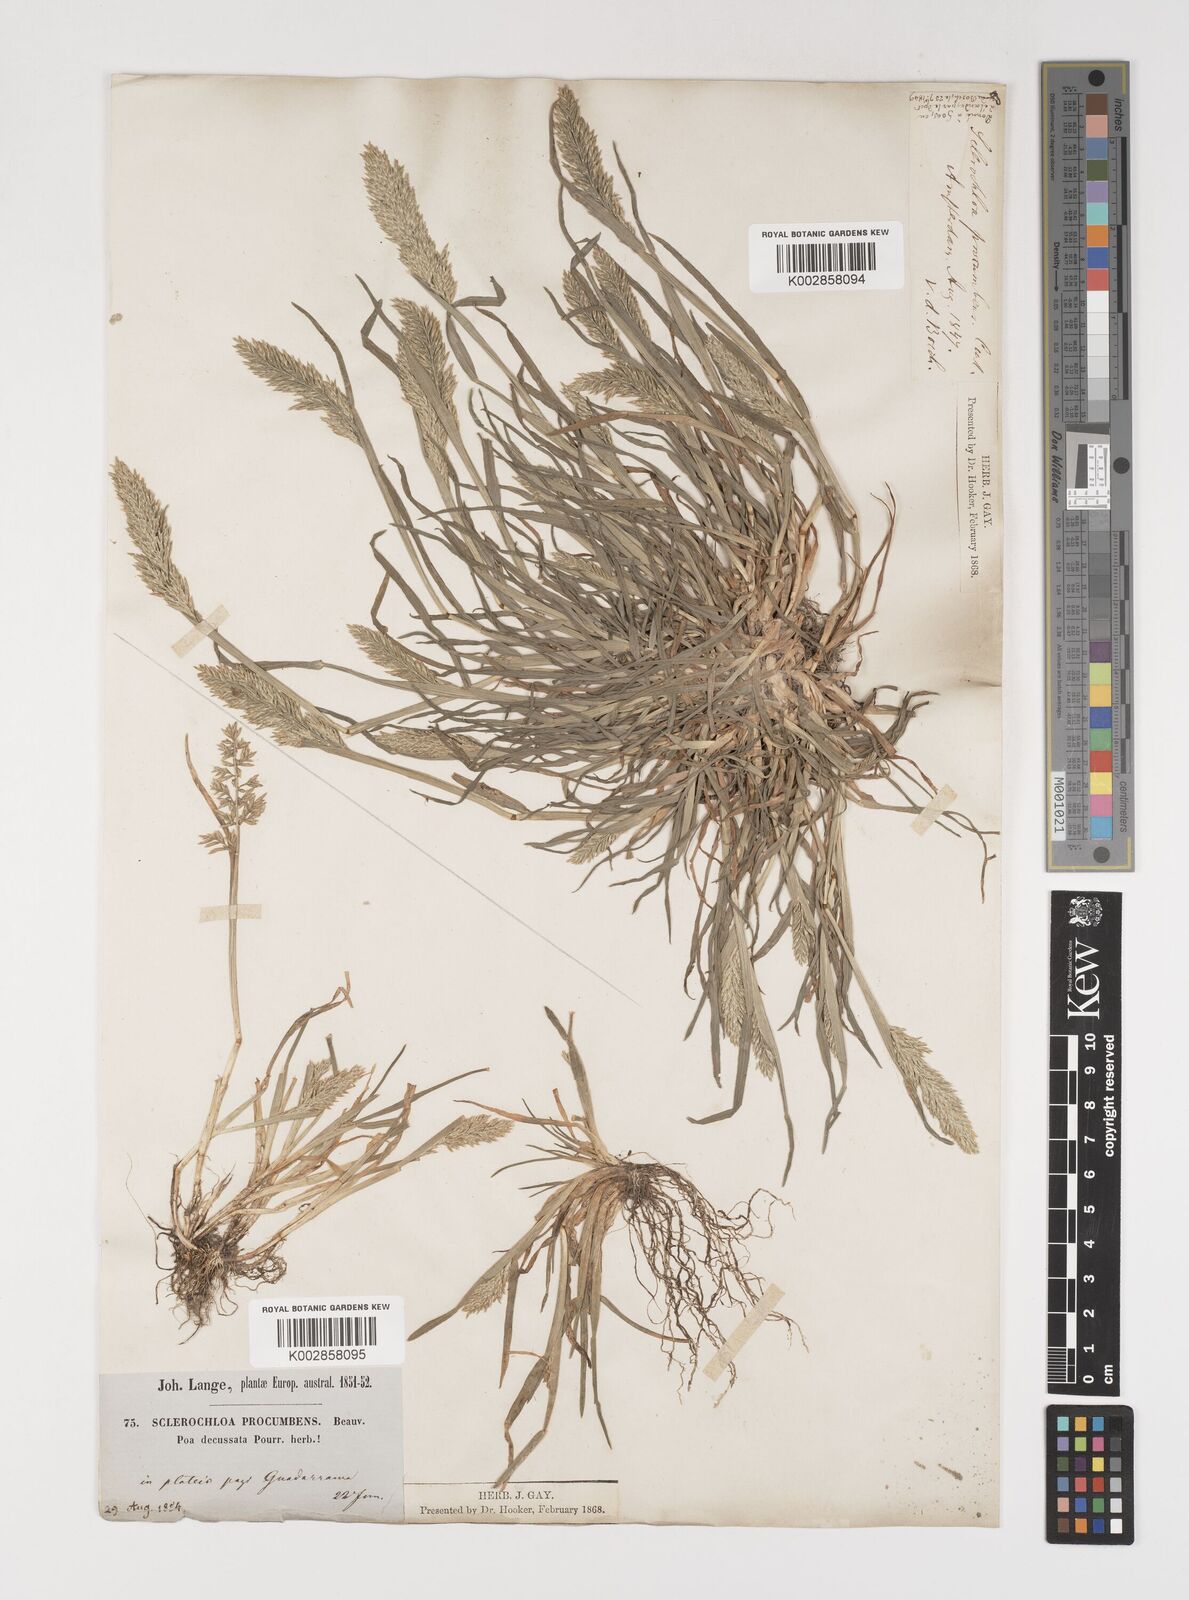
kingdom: Plantae
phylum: Tracheophyta
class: Liliopsida
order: Poales
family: Poaceae
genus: Puccinellia
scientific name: Puccinellia rupestris
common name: Stiff saltmarsh-grass
